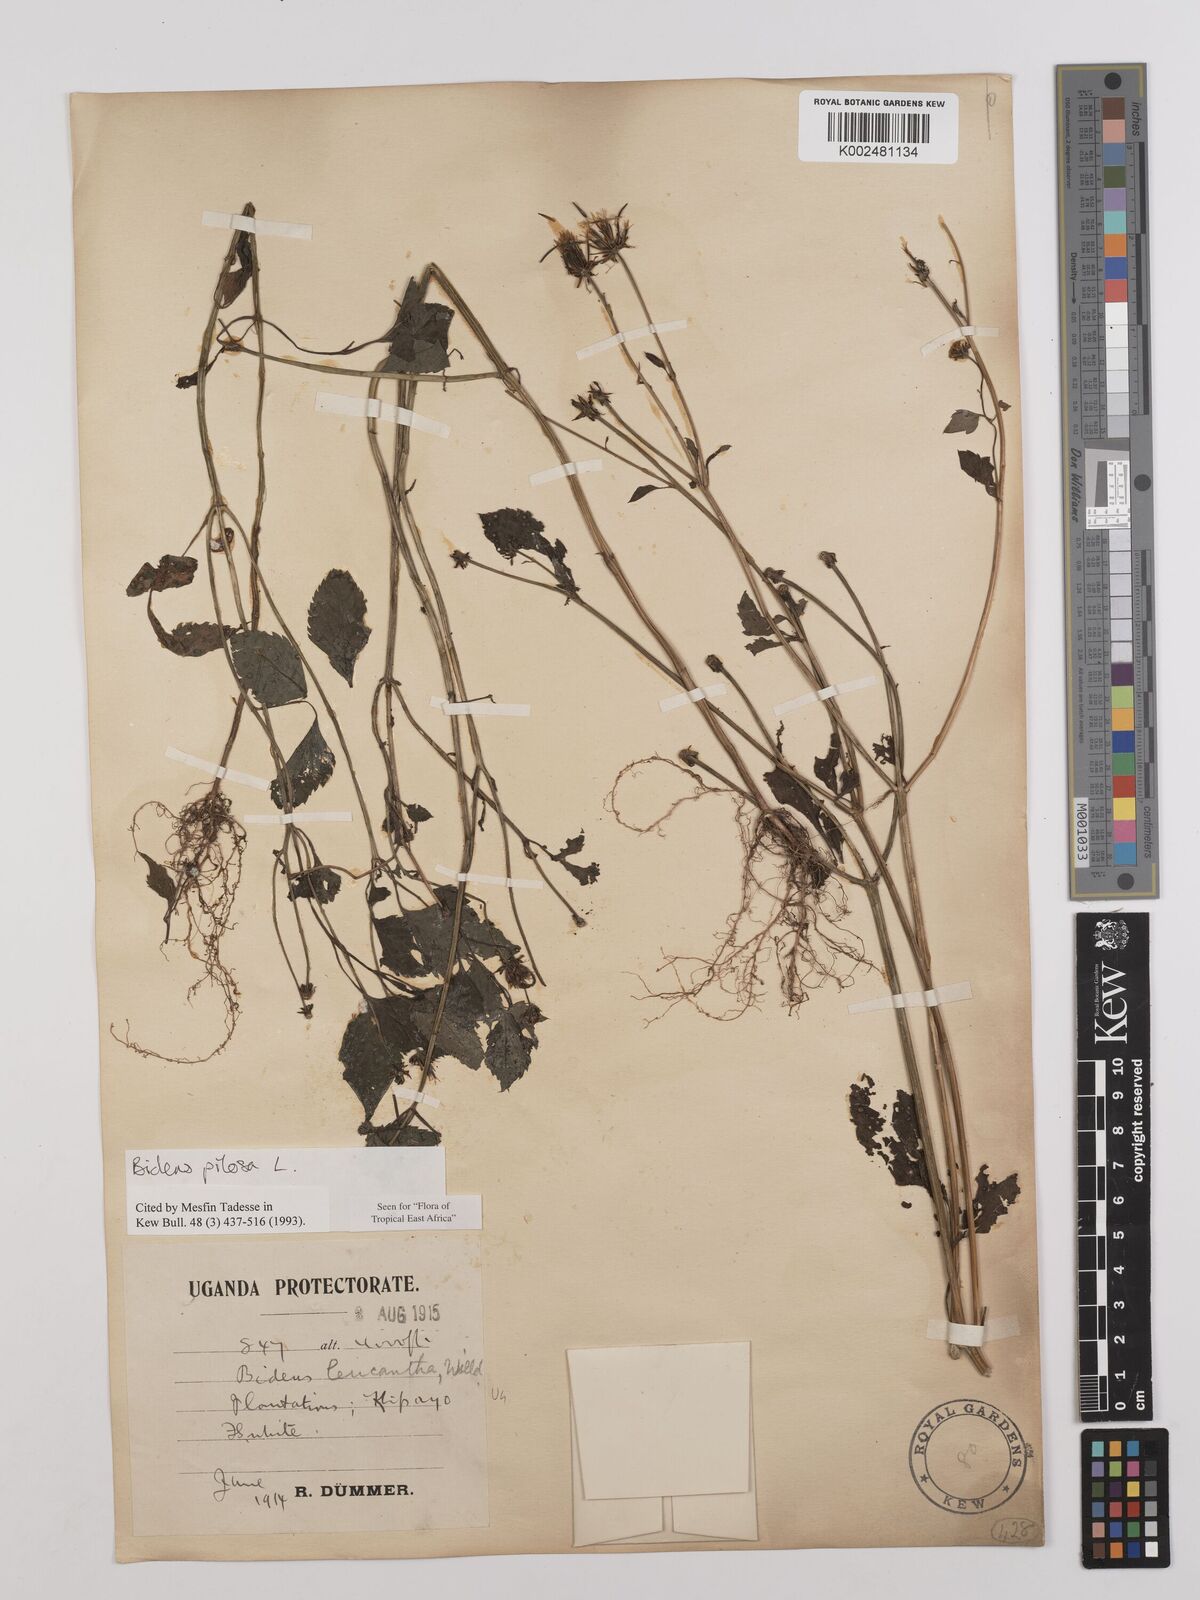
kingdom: Plantae
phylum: Tracheophyta
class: Magnoliopsida
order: Asterales
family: Asteraceae
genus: Bidens
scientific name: Bidens pilosa
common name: Black-jack
